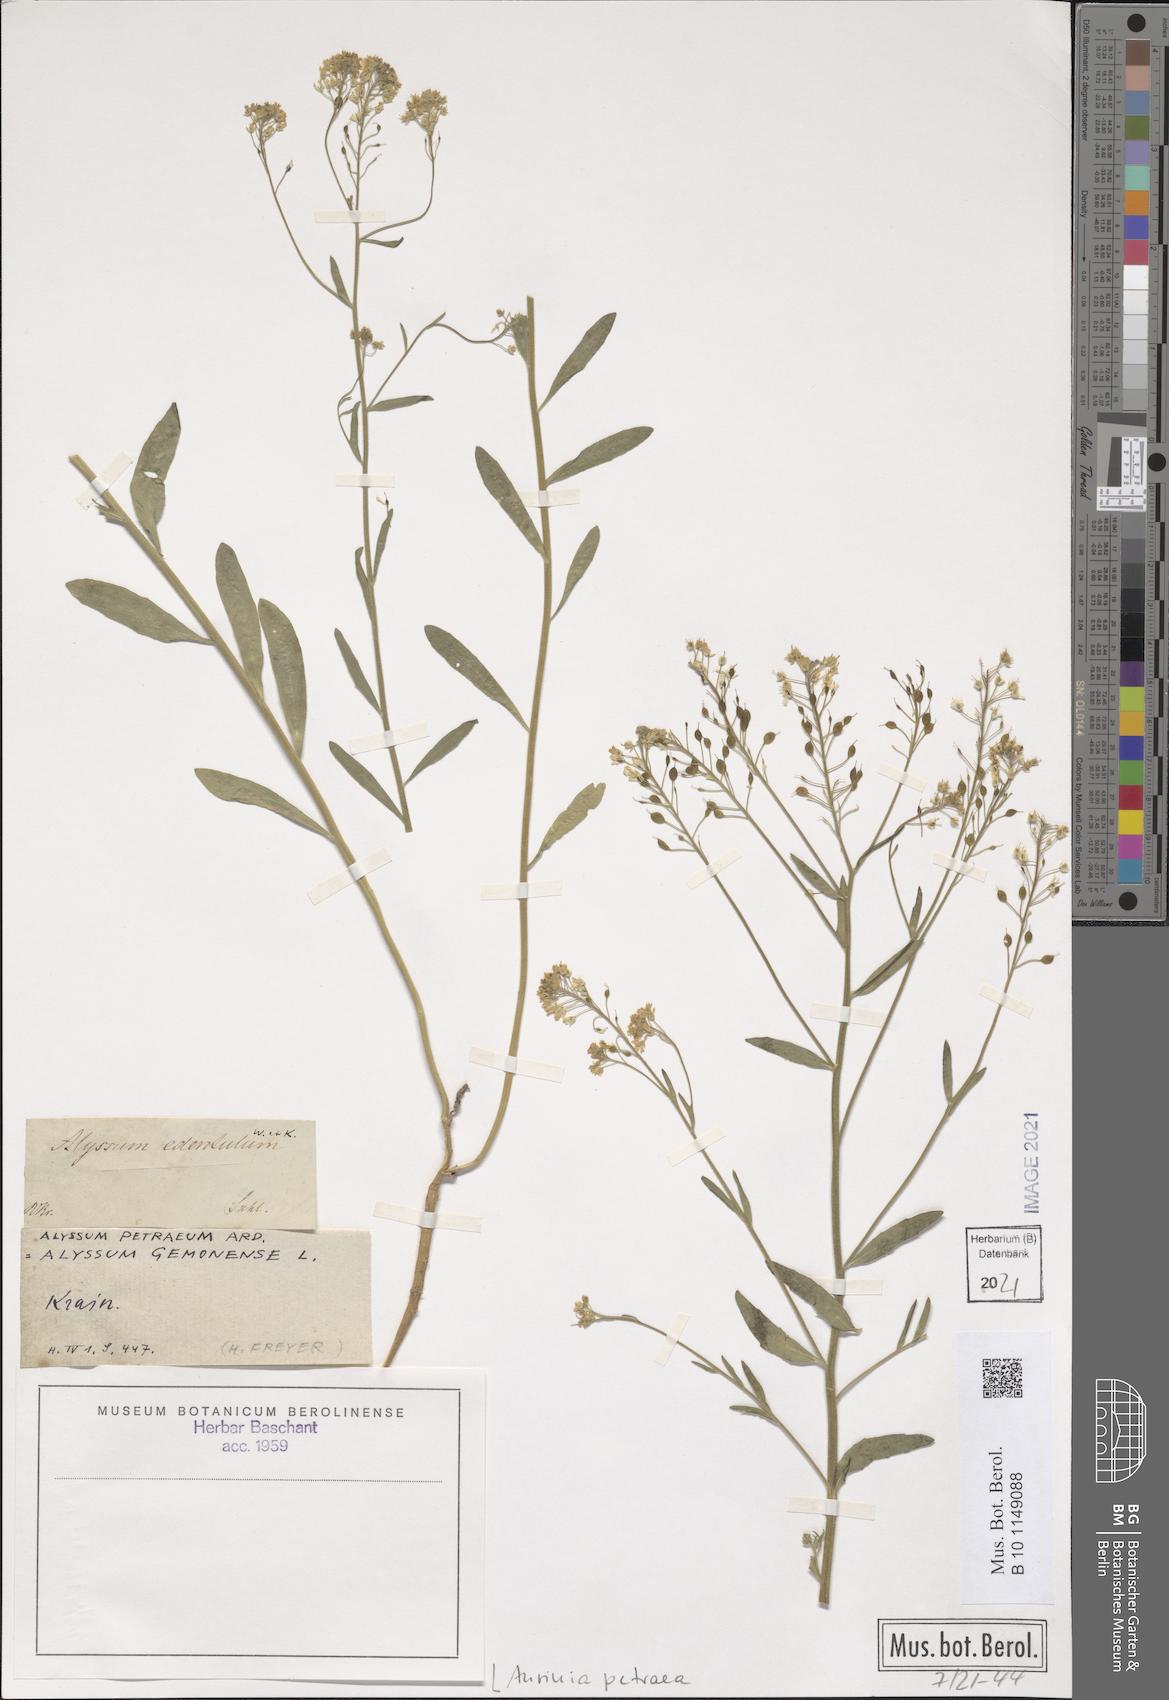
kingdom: Plantae
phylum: Tracheophyta
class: Magnoliopsida
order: Brassicales
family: Brassicaceae
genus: Aurinia
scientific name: Aurinia petraea
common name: Goldentuft
